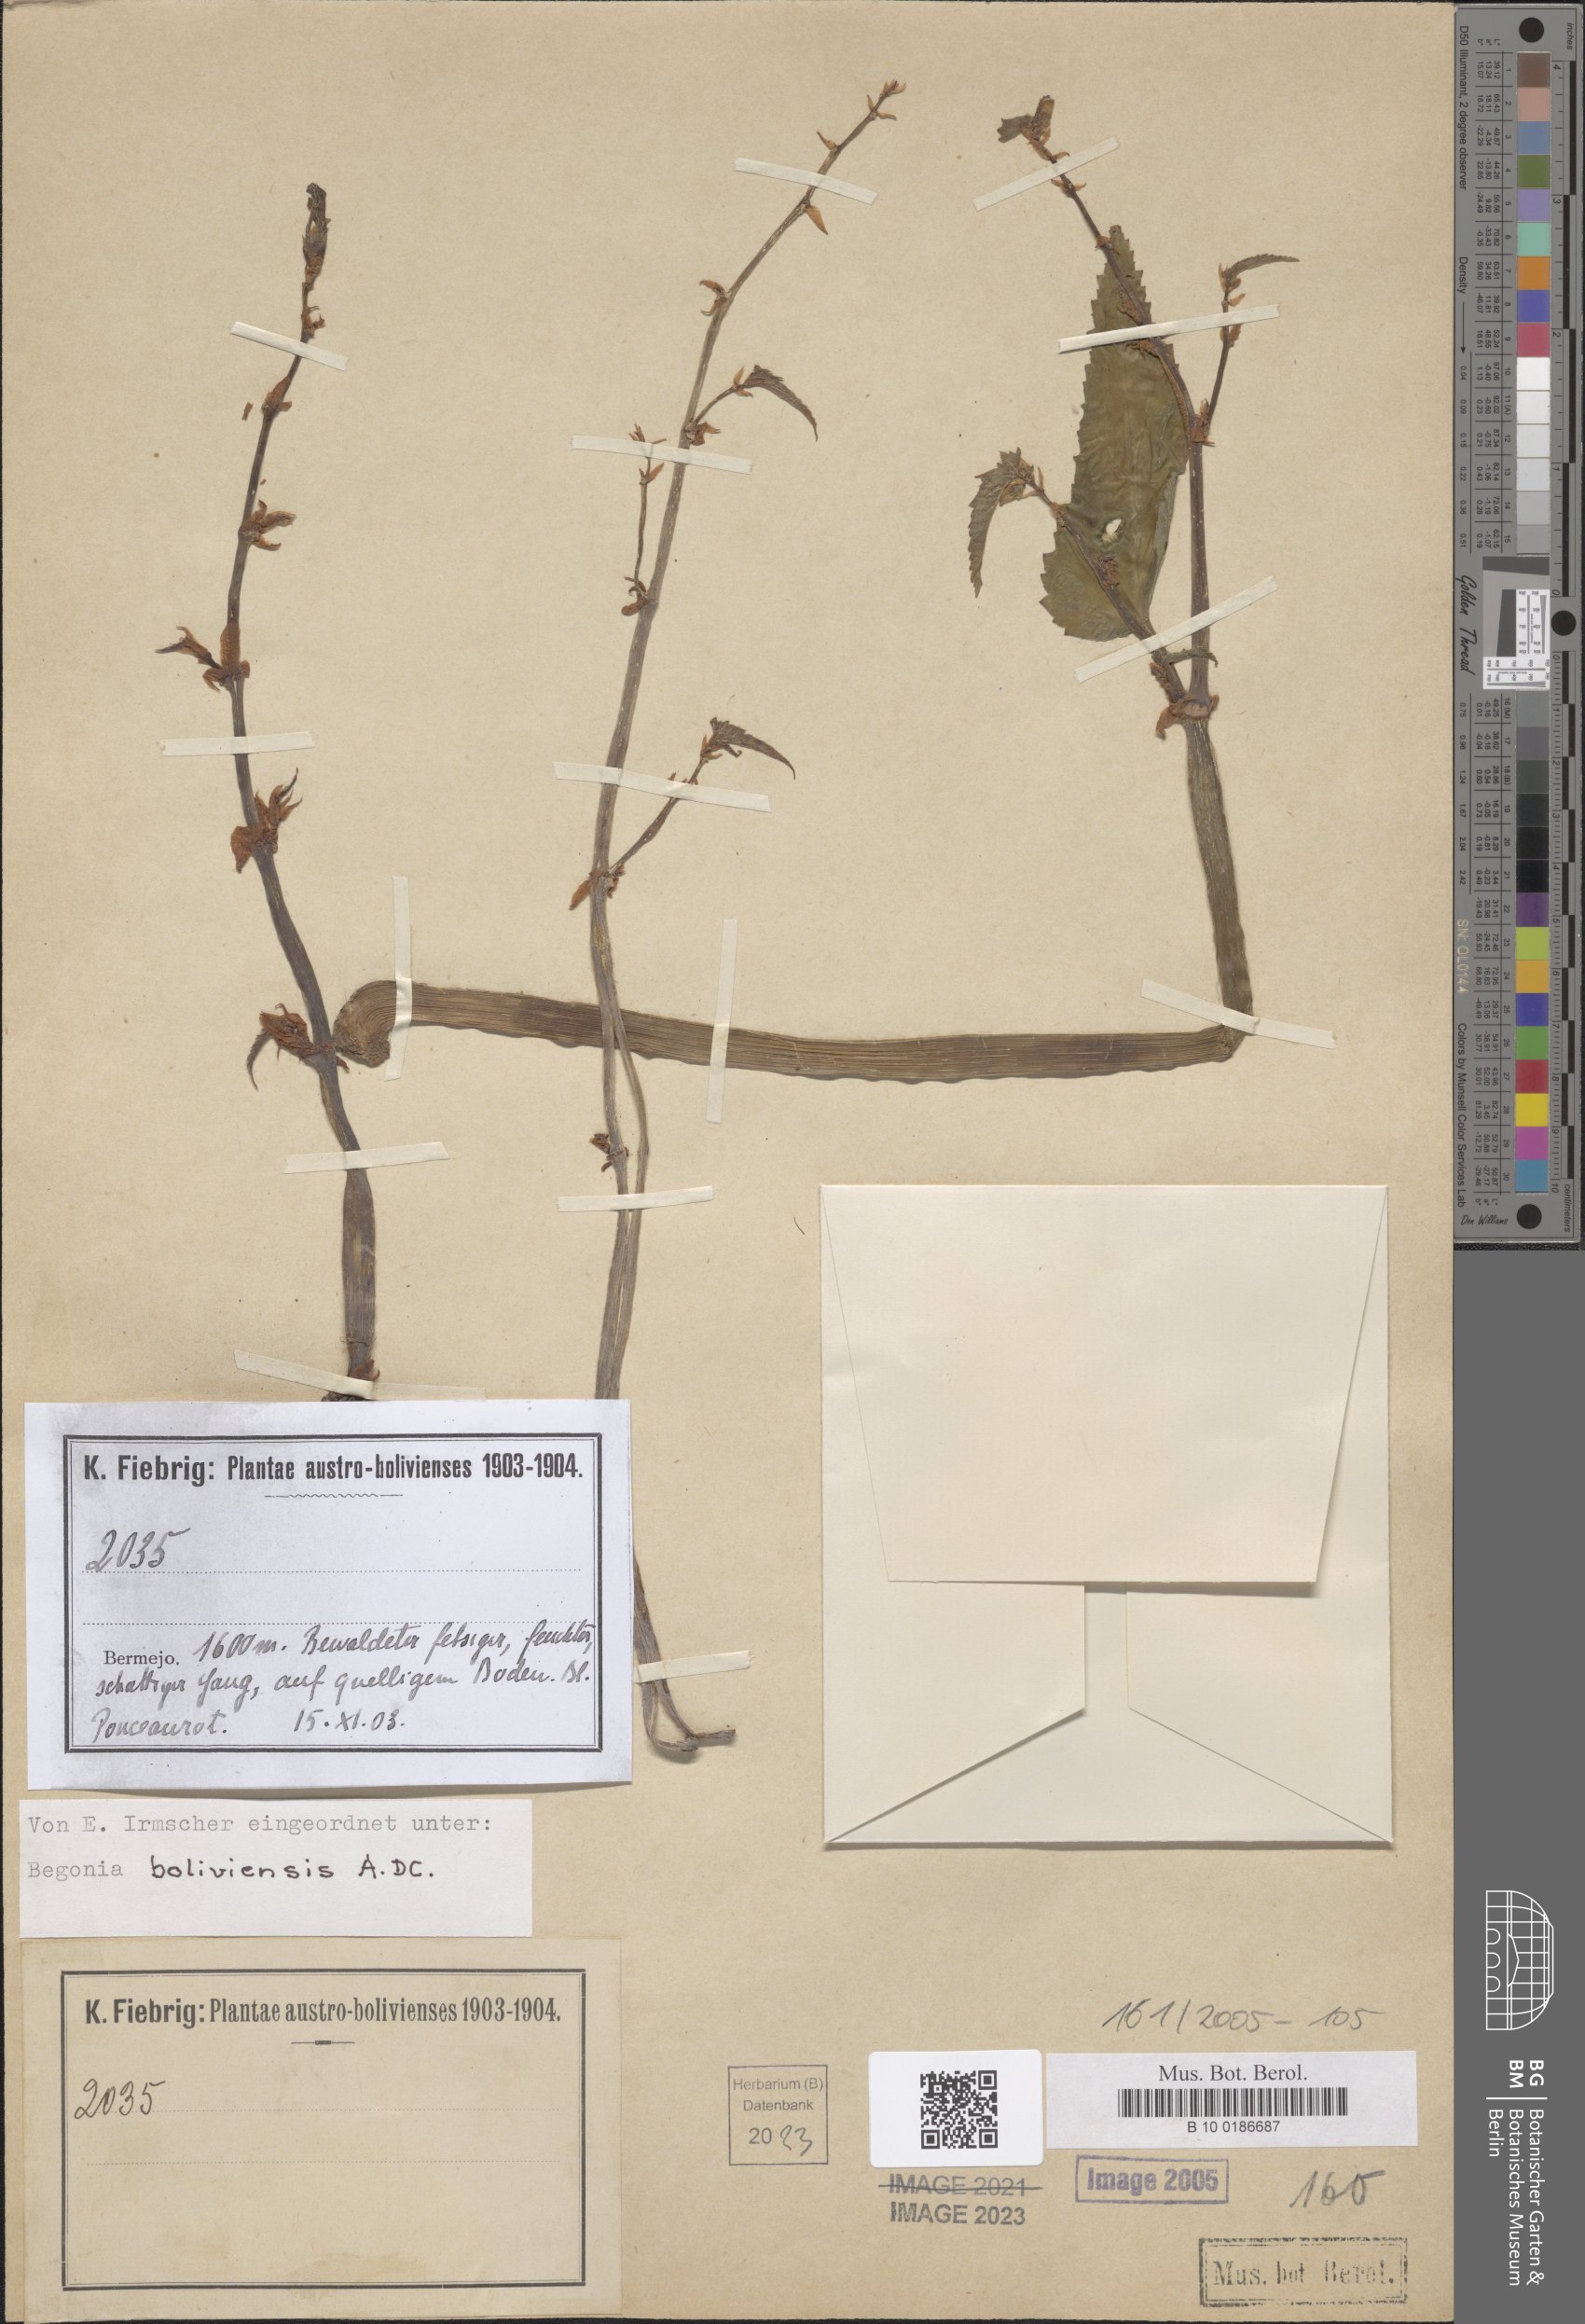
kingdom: Plantae
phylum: Tracheophyta
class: Magnoliopsida
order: Cucurbitales
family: Begoniaceae
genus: Begonia
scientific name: Begonia boliviensis
